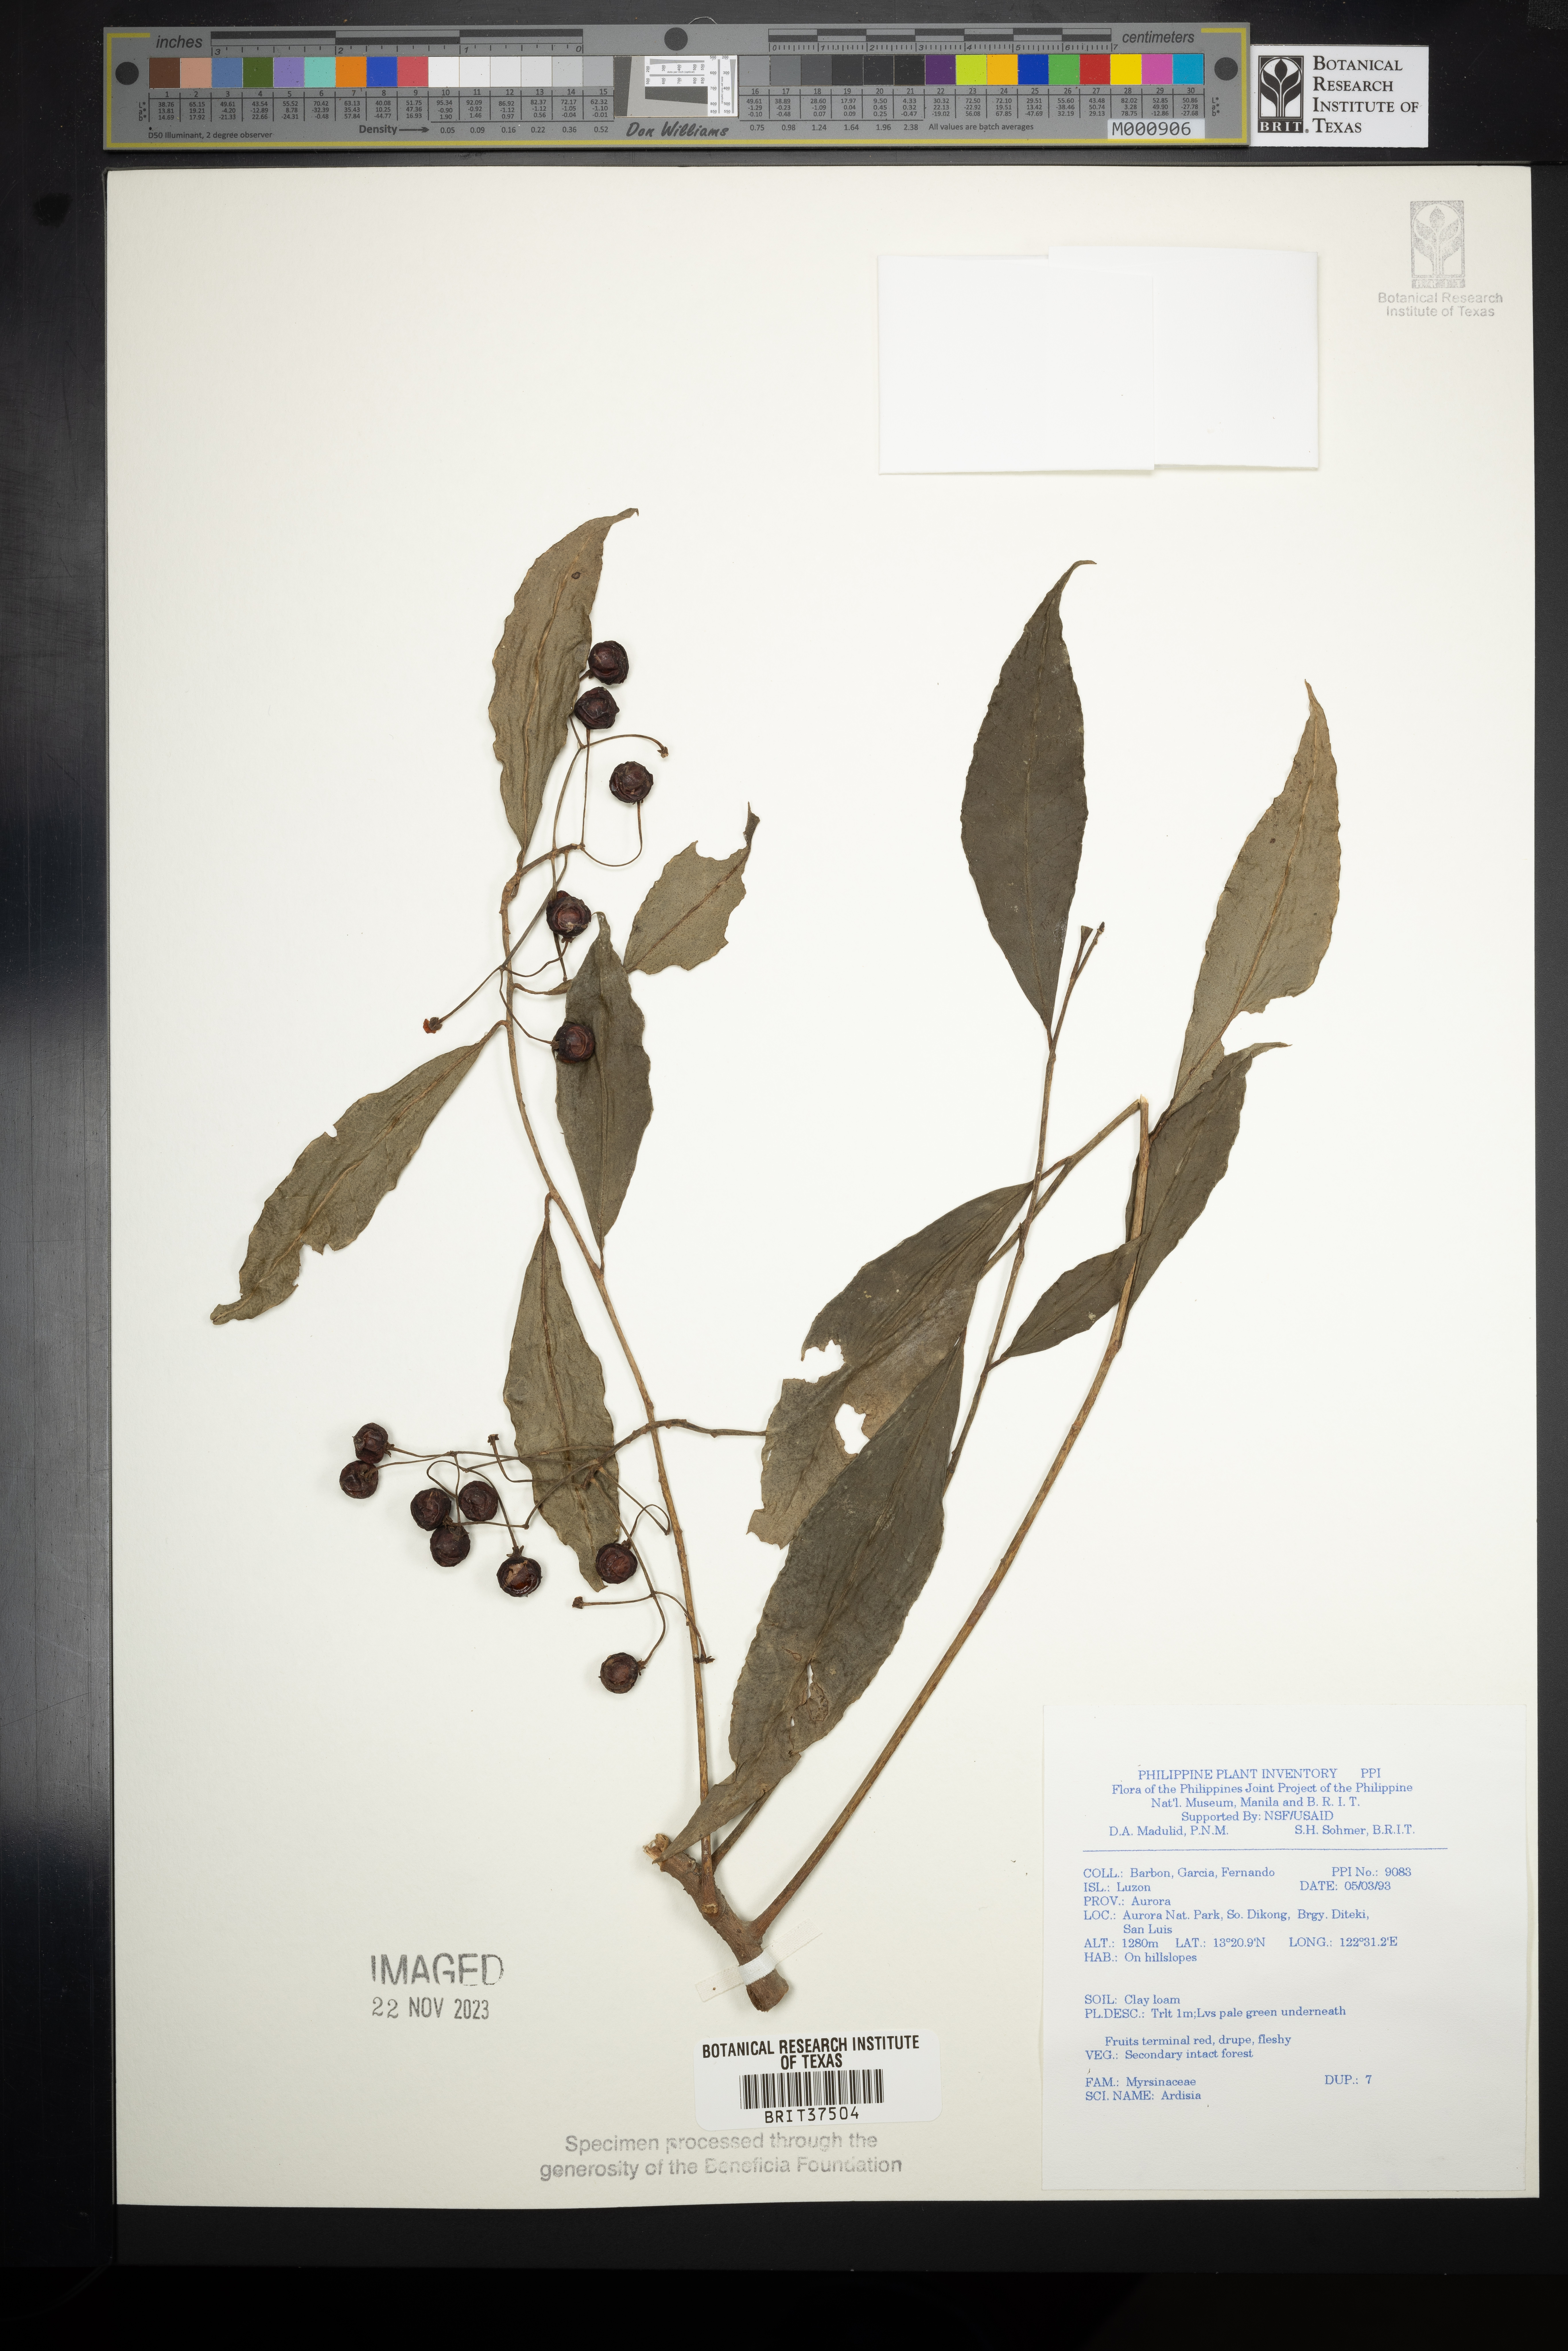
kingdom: Plantae
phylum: Tracheophyta
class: Magnoliopsida
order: Ericales
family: Primulaceae
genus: Ardisia
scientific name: Ardisia
